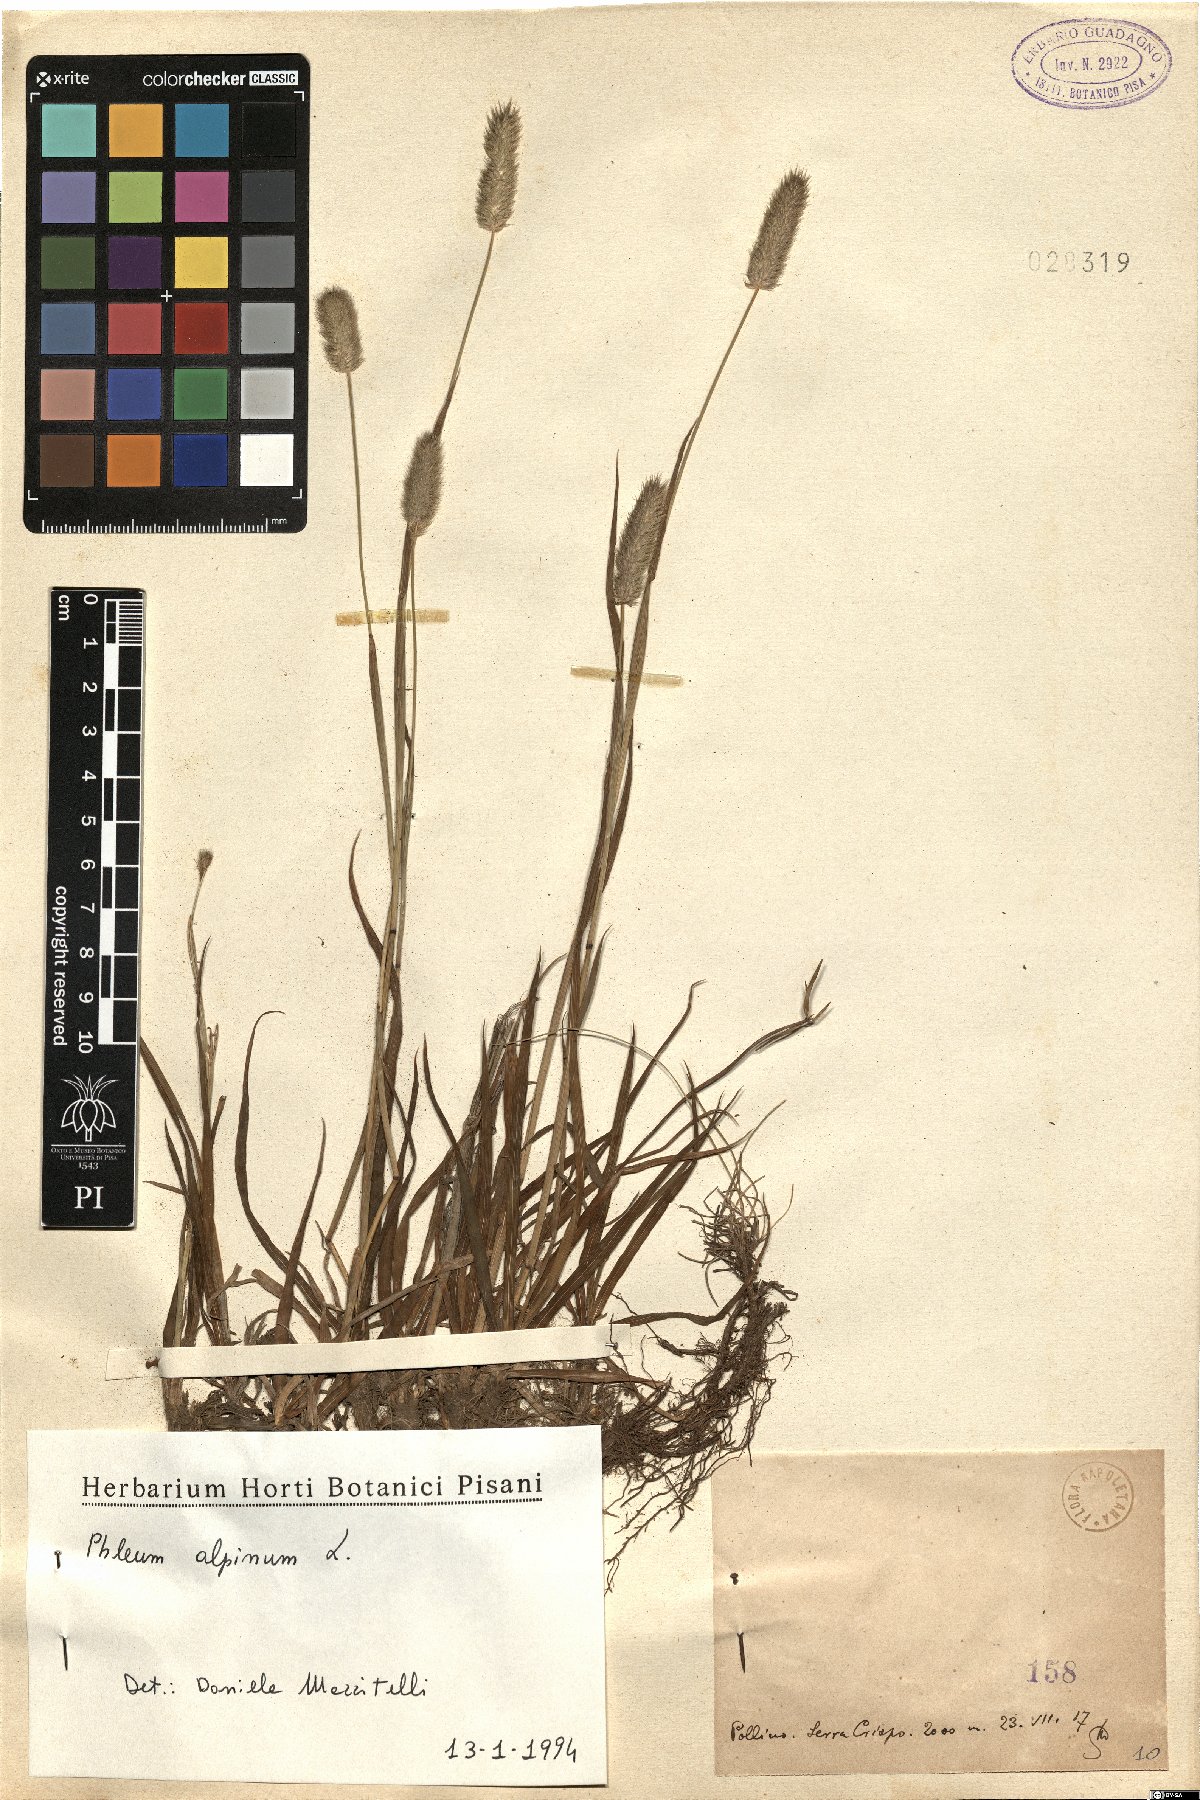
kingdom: Plantae
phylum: Tracheophyta
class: Liliopsida
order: Poales
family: Poaceae
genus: Phleum
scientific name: Phleum alpinum
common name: Alpine cat's-tail
